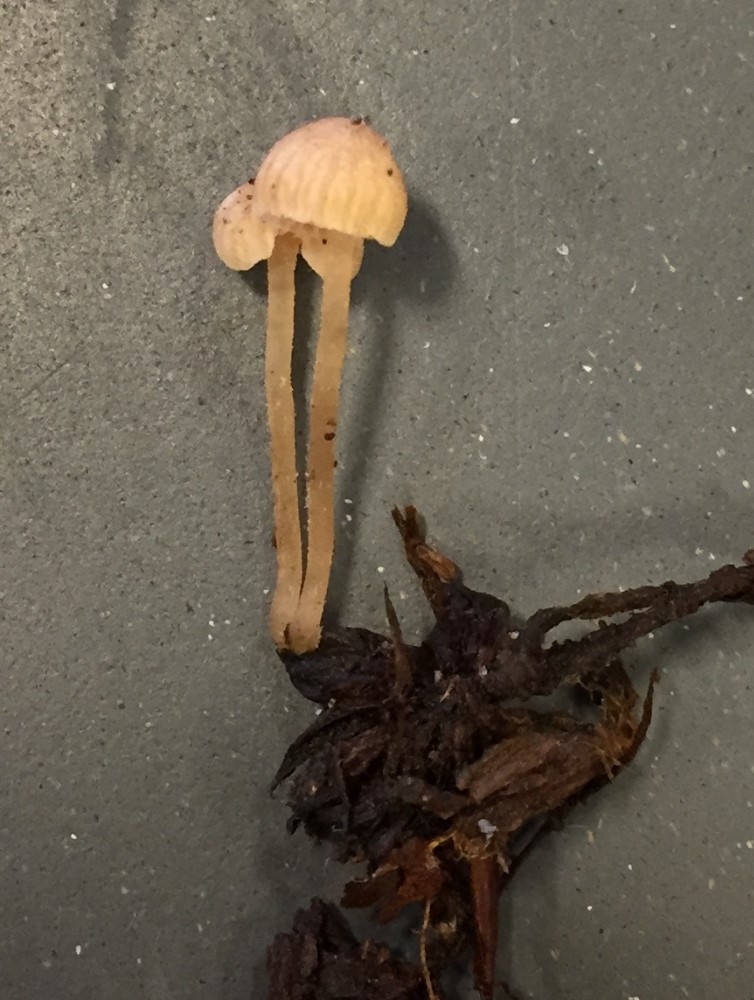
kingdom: Fungi
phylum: Basidiomycota
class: Agaricomycetes
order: Agaricales
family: Tubariaceae
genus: Flammulaster
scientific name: Flammulaster carpophilus
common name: blegrosa grynskælhat
